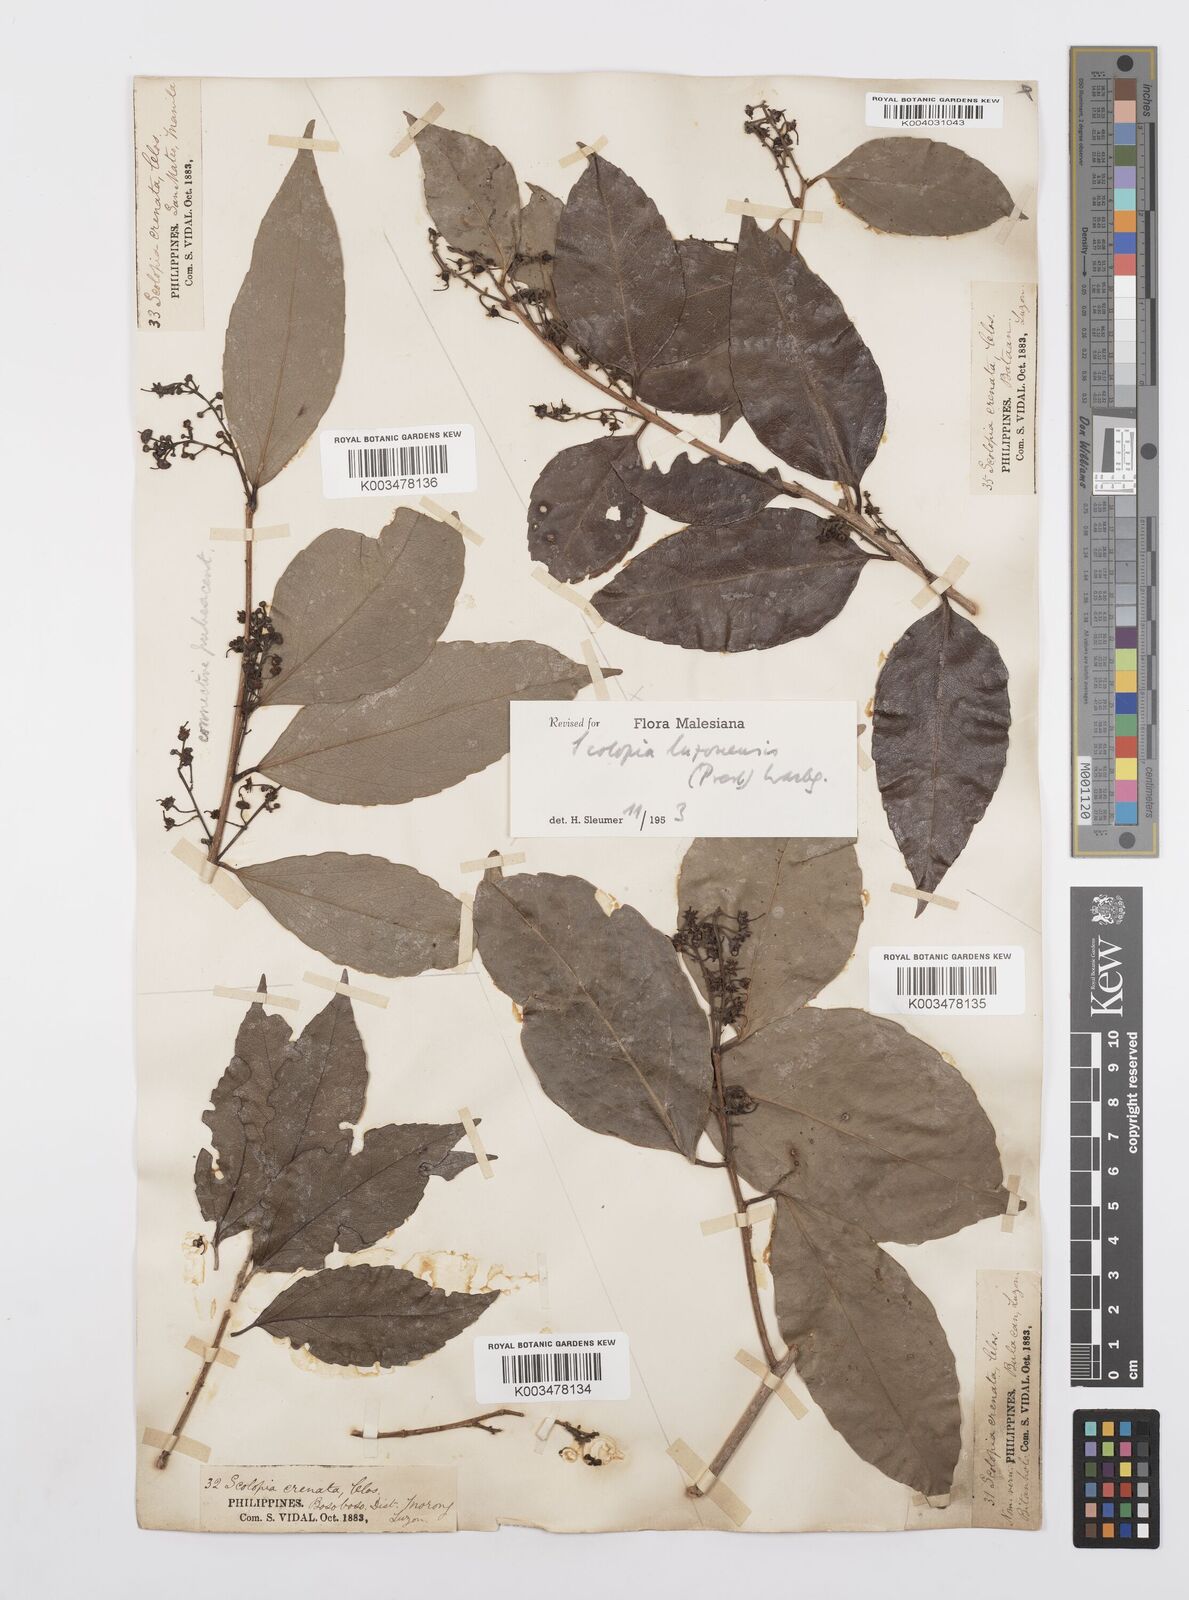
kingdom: Plantae
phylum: Tracheophyta
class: Magnoliopsida
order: Malpighiales
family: Salicaceae
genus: Scolopia
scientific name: Scolopia luzonensis
